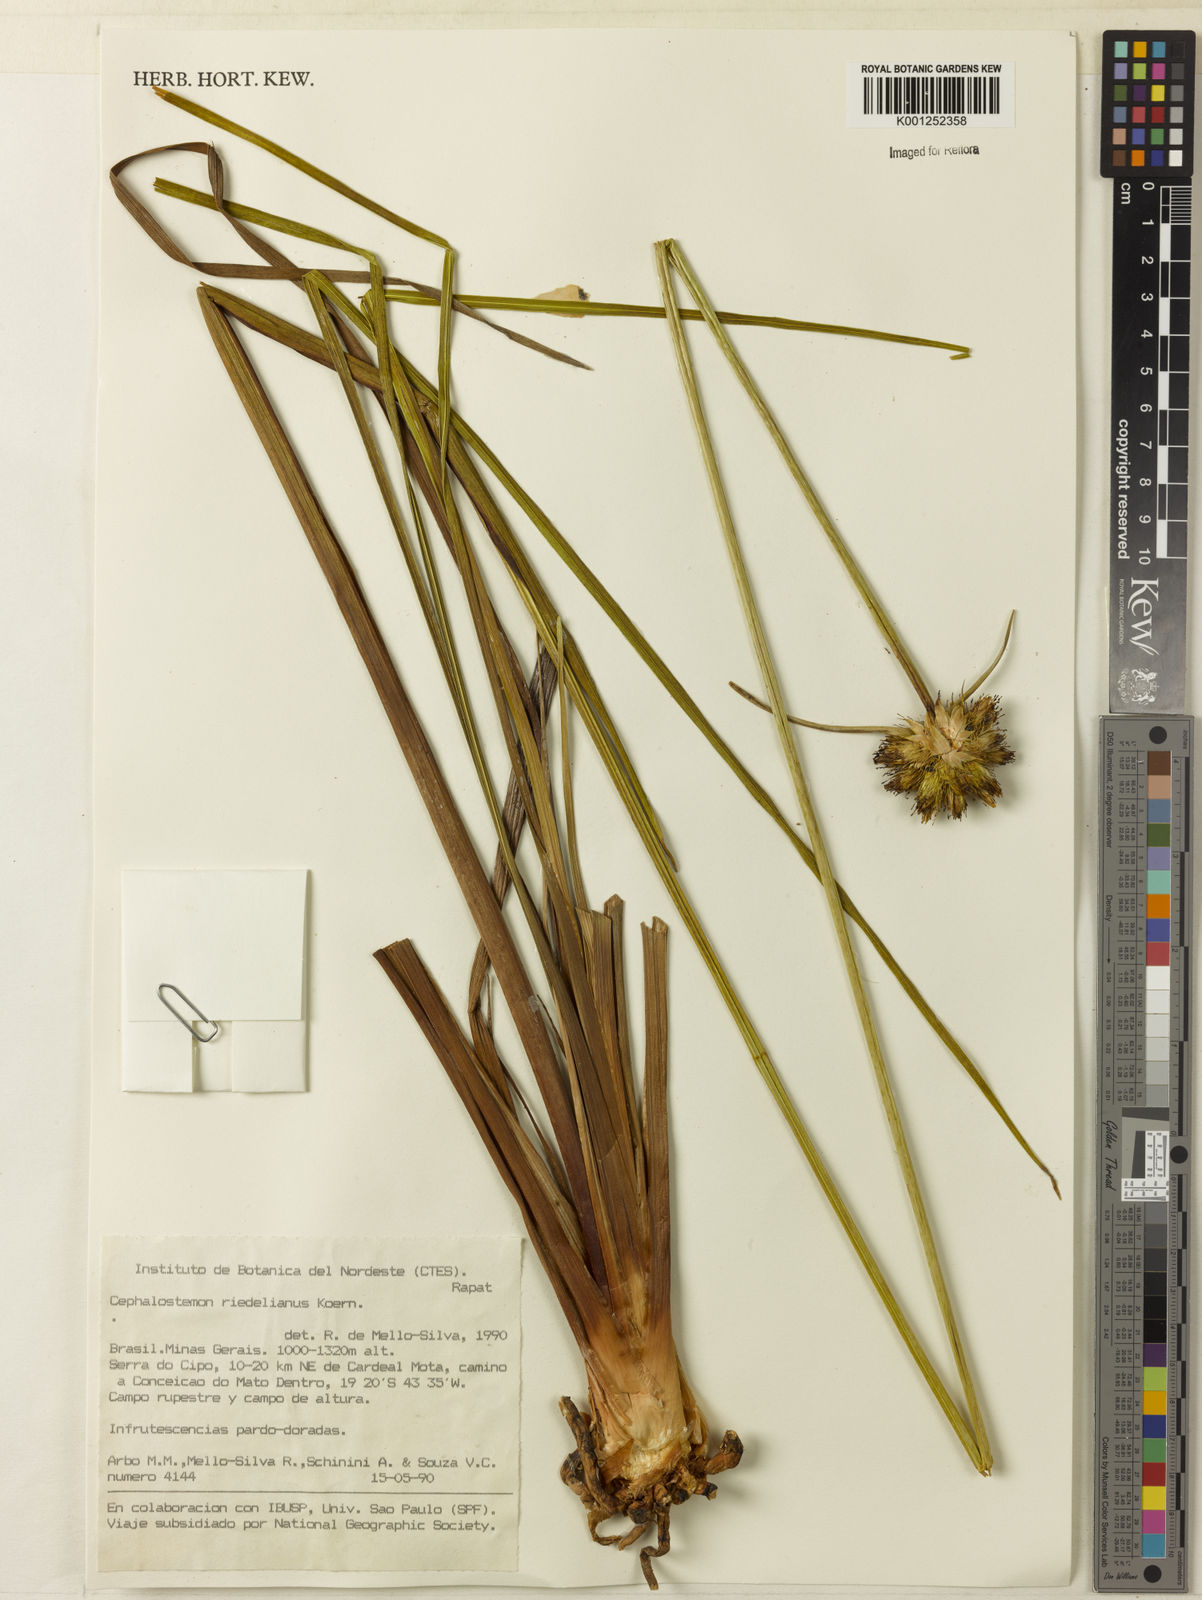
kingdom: Plantae
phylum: Tracheophyta
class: Liliopsida
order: Poales
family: Rapateaceae
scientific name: Rapateaceae
